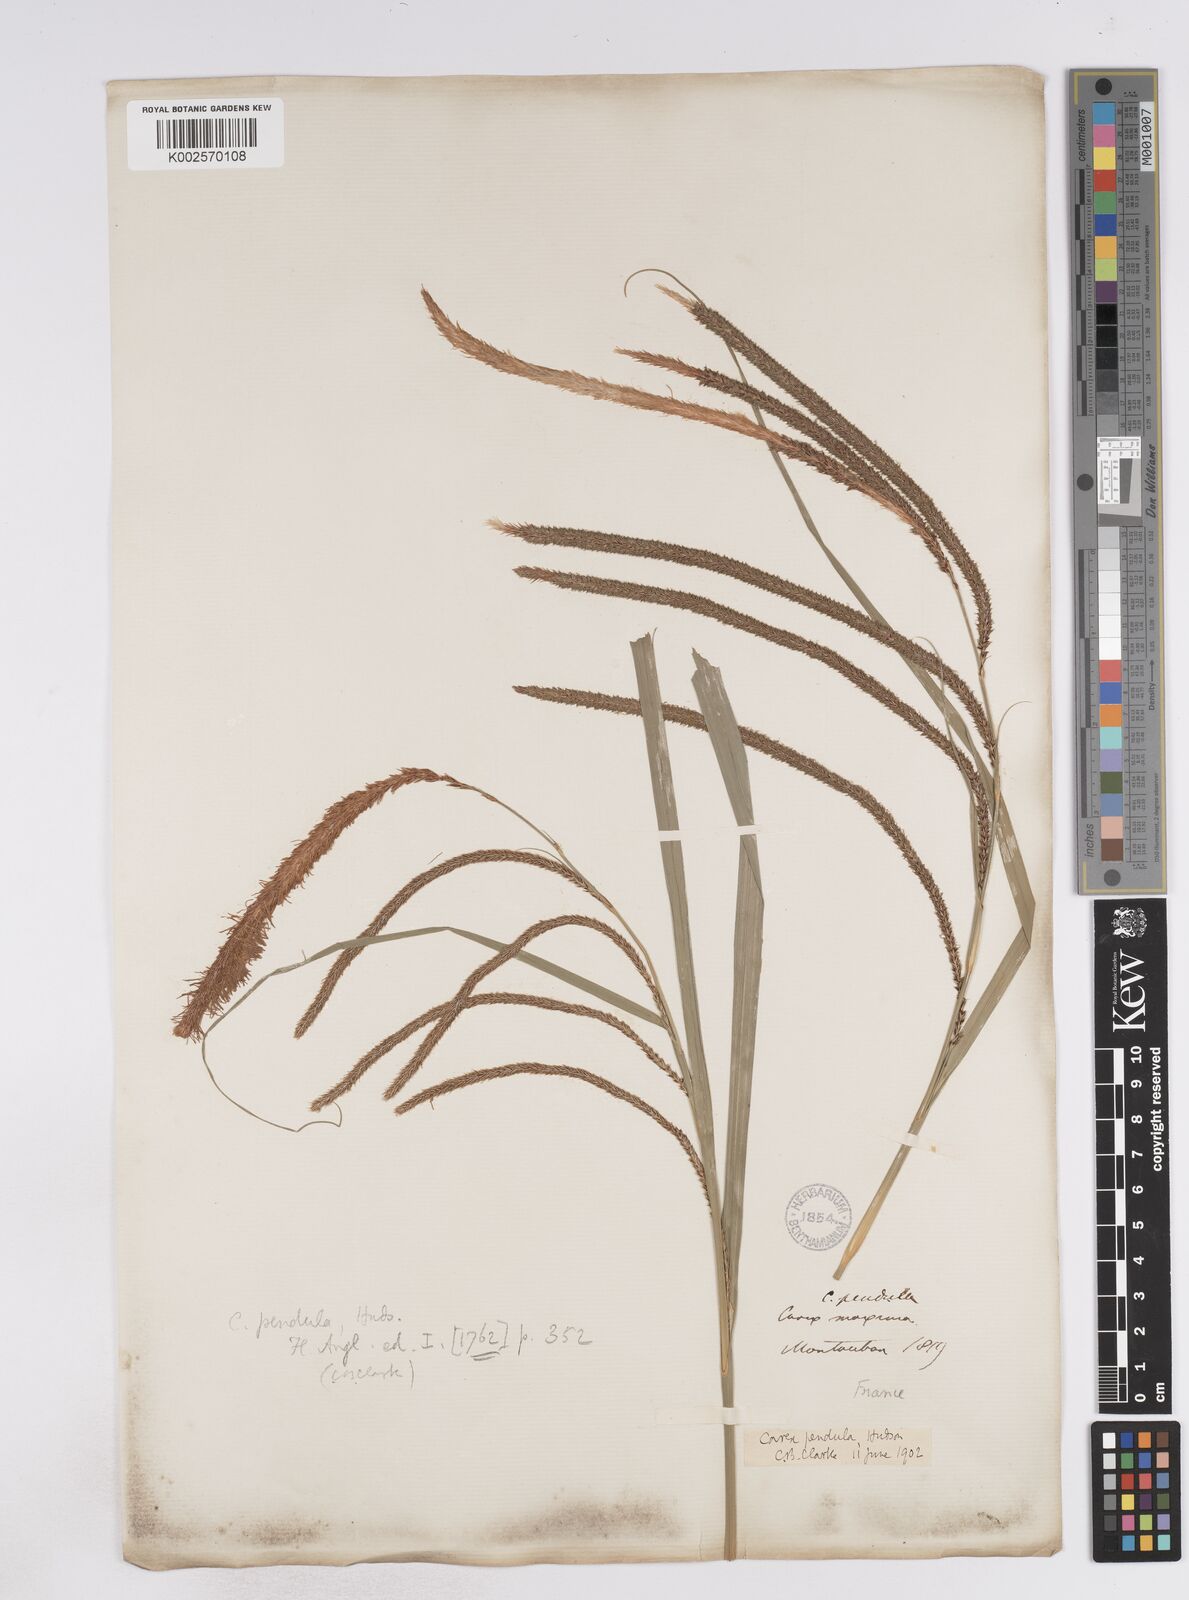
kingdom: Plantae
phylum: Tracheophyta
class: Liliopsida
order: Poales
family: Cyperaceae
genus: Carex
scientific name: Carex pendula
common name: Pendulous sedge
